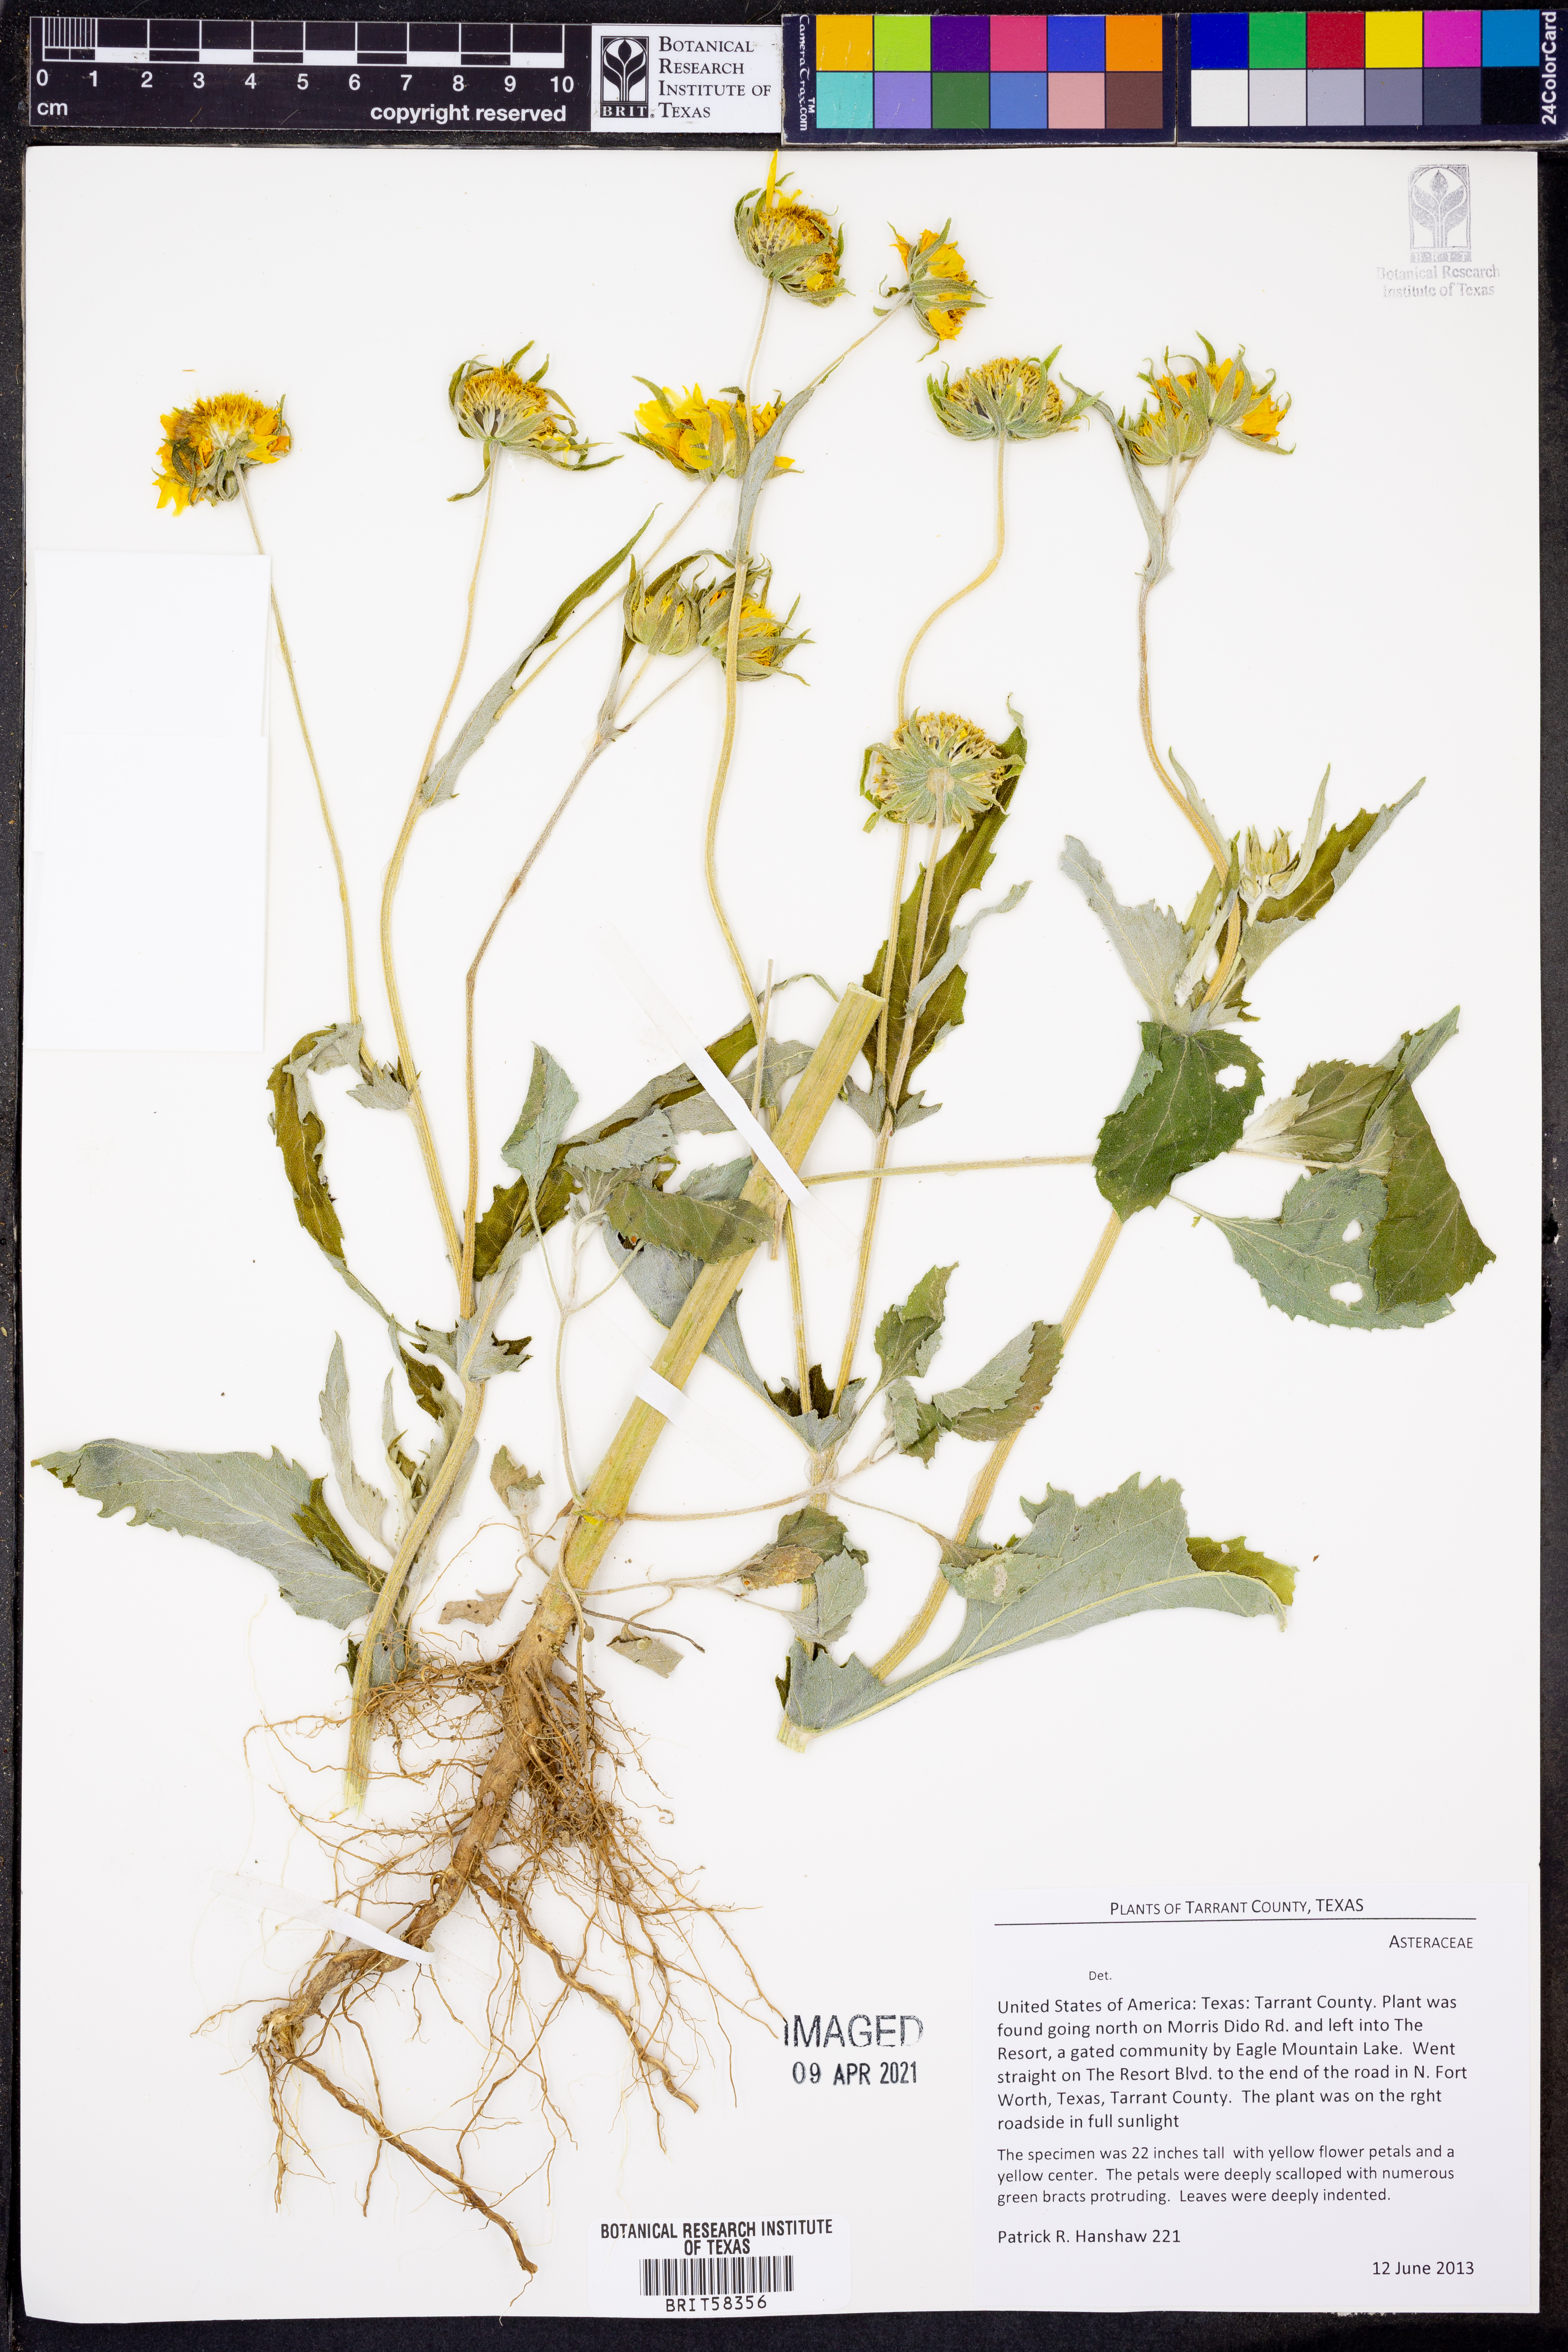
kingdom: Plantae
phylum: Tracheophyta
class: Magnoliopsida
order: Asterales
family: Asteraceae
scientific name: Asteraceae
